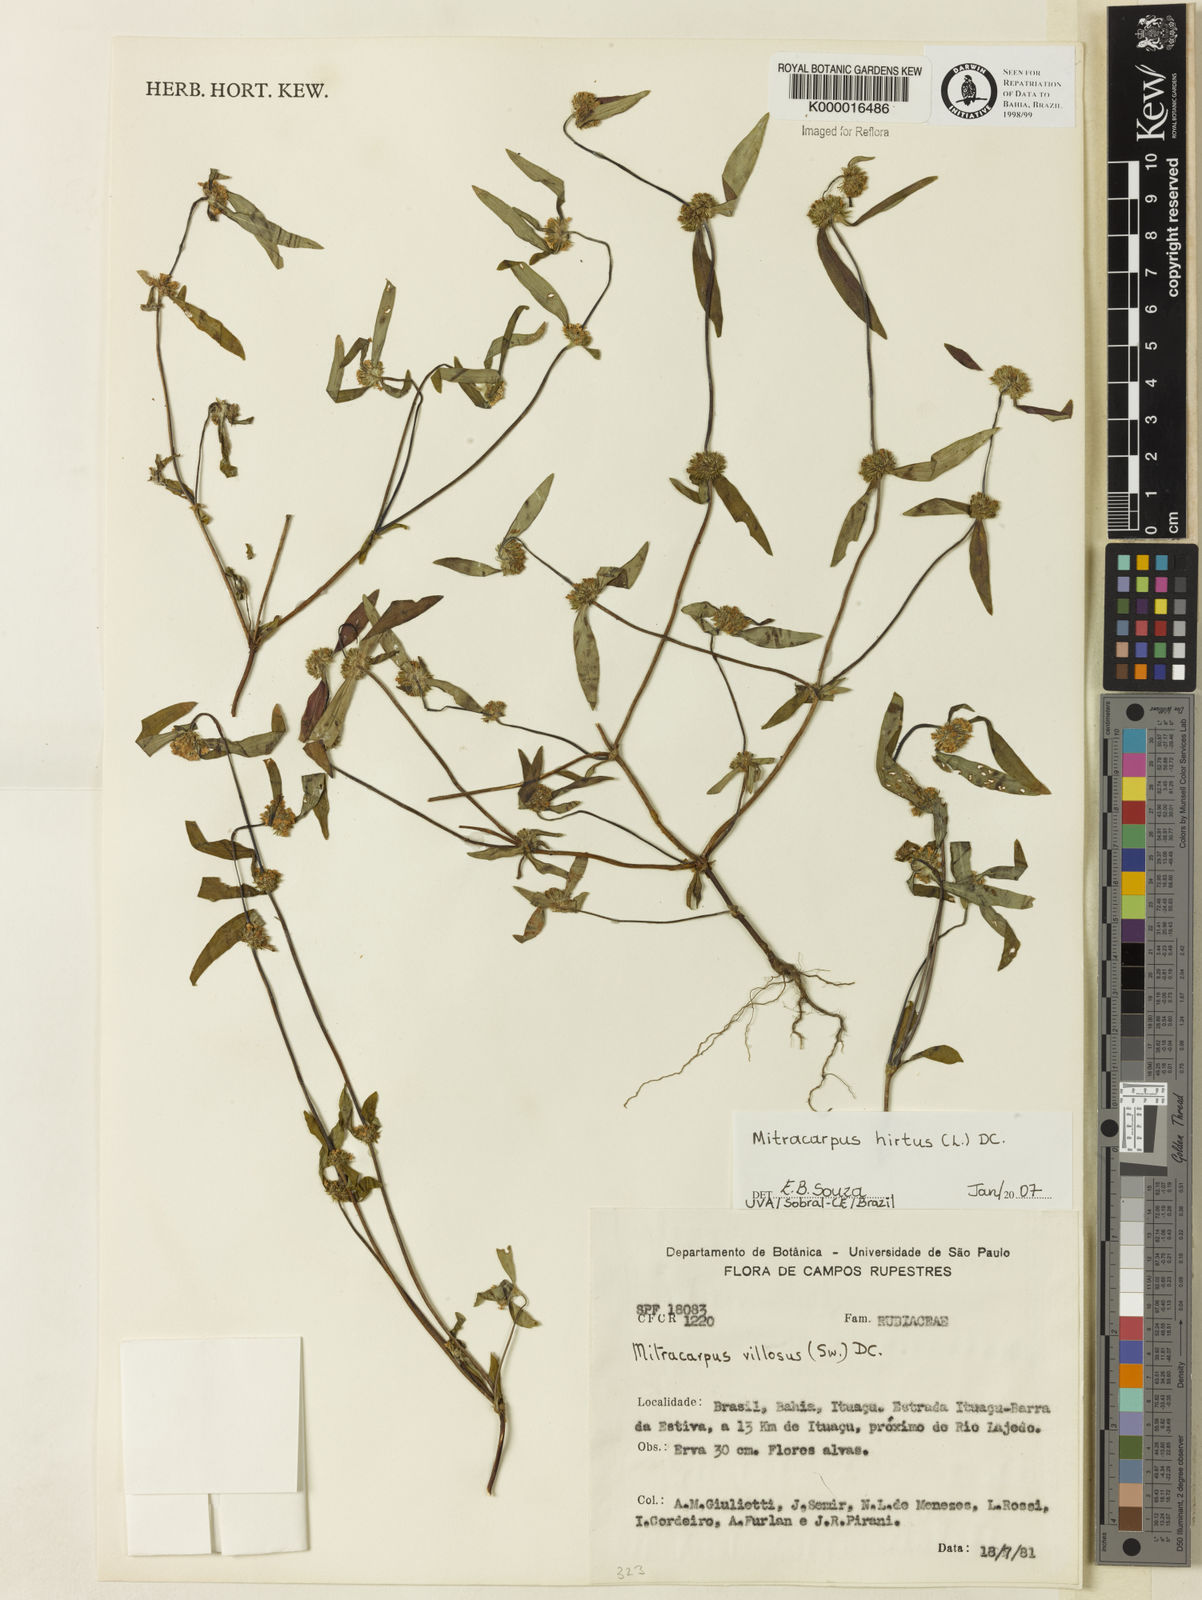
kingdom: Plantae
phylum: Tracheophyta
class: Magnoliopsida
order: Gentianales
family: Rubiaceae
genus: Mitracarpus
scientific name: Mitracarpus hirtus
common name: Tropical girdlepod
